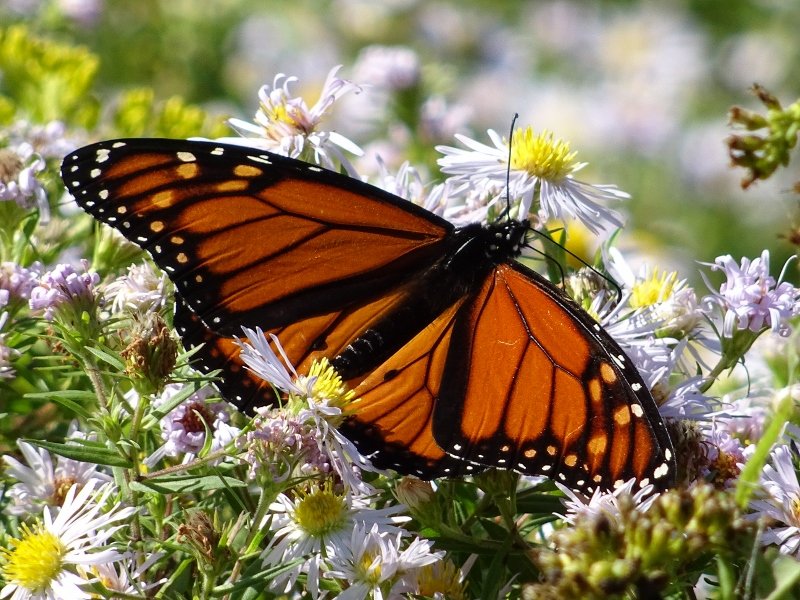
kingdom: Animalia
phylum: Arthropoda
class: Insecta
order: Lepidoptera
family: Nymphalidae
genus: Danaus
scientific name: Danaus plexippus
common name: Monarch
